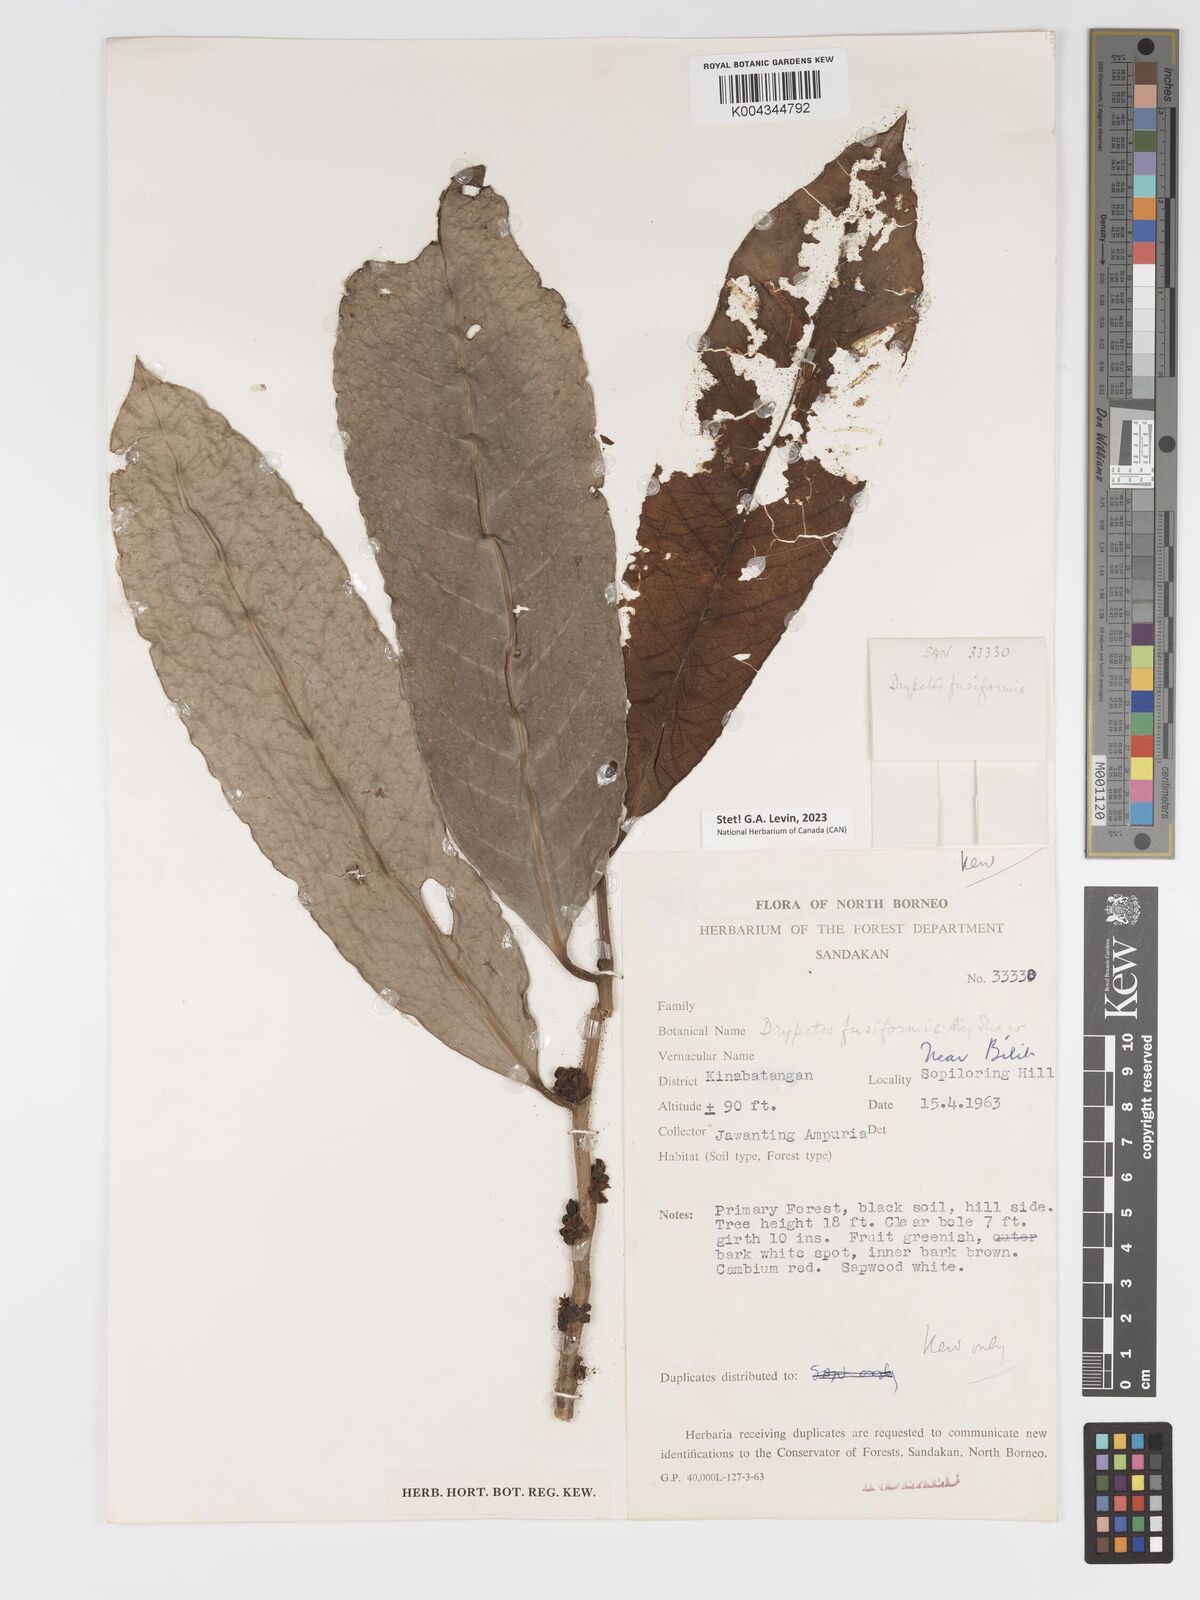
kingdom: Plantae
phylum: Tracheophyta
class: Magnoliopsida
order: Malpighiales
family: Putranjivaceae
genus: Drypetes
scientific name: Drypetes fusiformis
